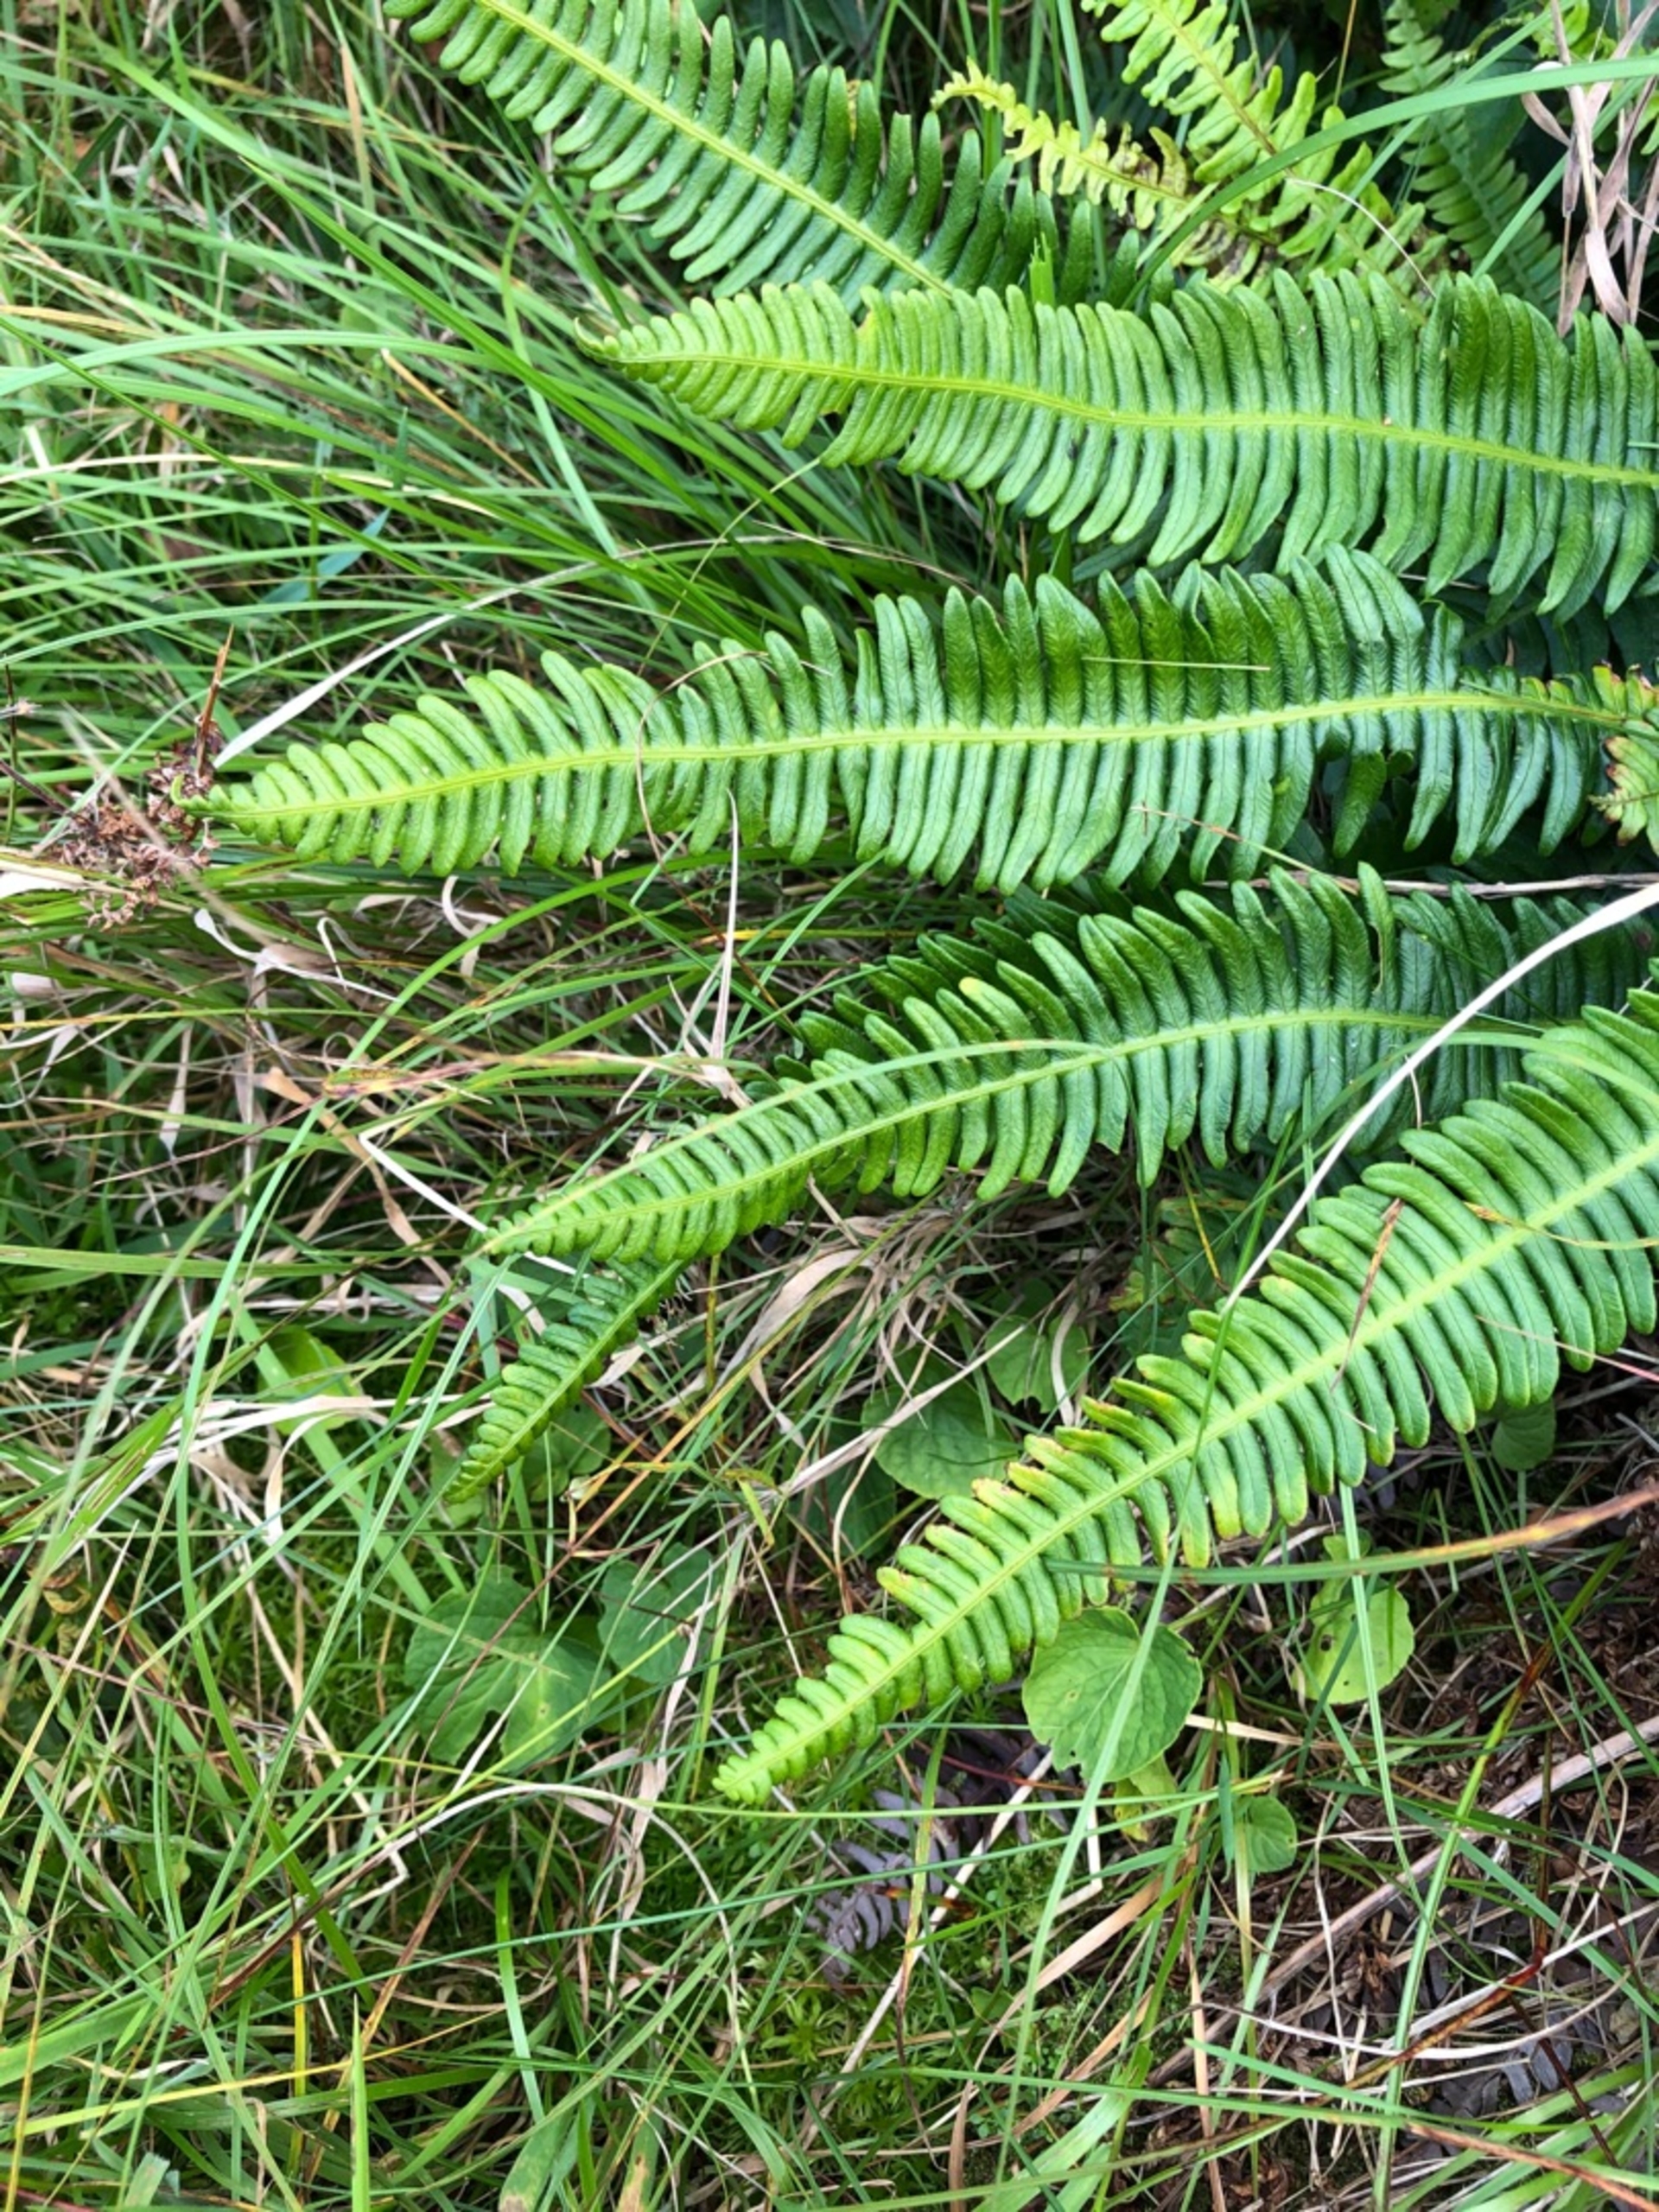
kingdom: Plantae
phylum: Tracheophyta
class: Polypodiopsida
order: Polypodiales
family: Blechnaceae
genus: Struthiopteris
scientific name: Struthiopteris spicant
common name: Kambregne
